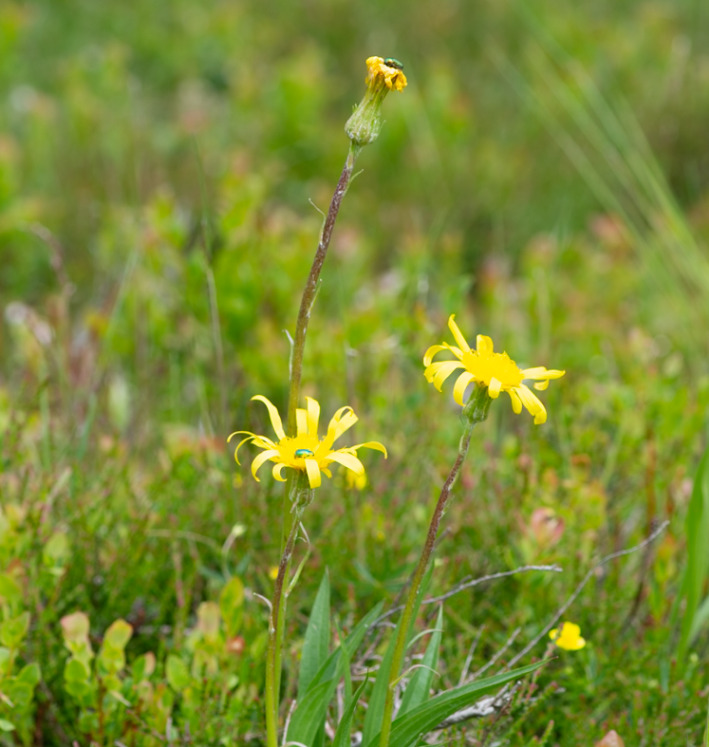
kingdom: Plantae
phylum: Tracheophyta
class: Magnoliopsida
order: Asterales
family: Asteraceae
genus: Scorzonera
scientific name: Scorzonera humilis
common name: Lav skorsoner
